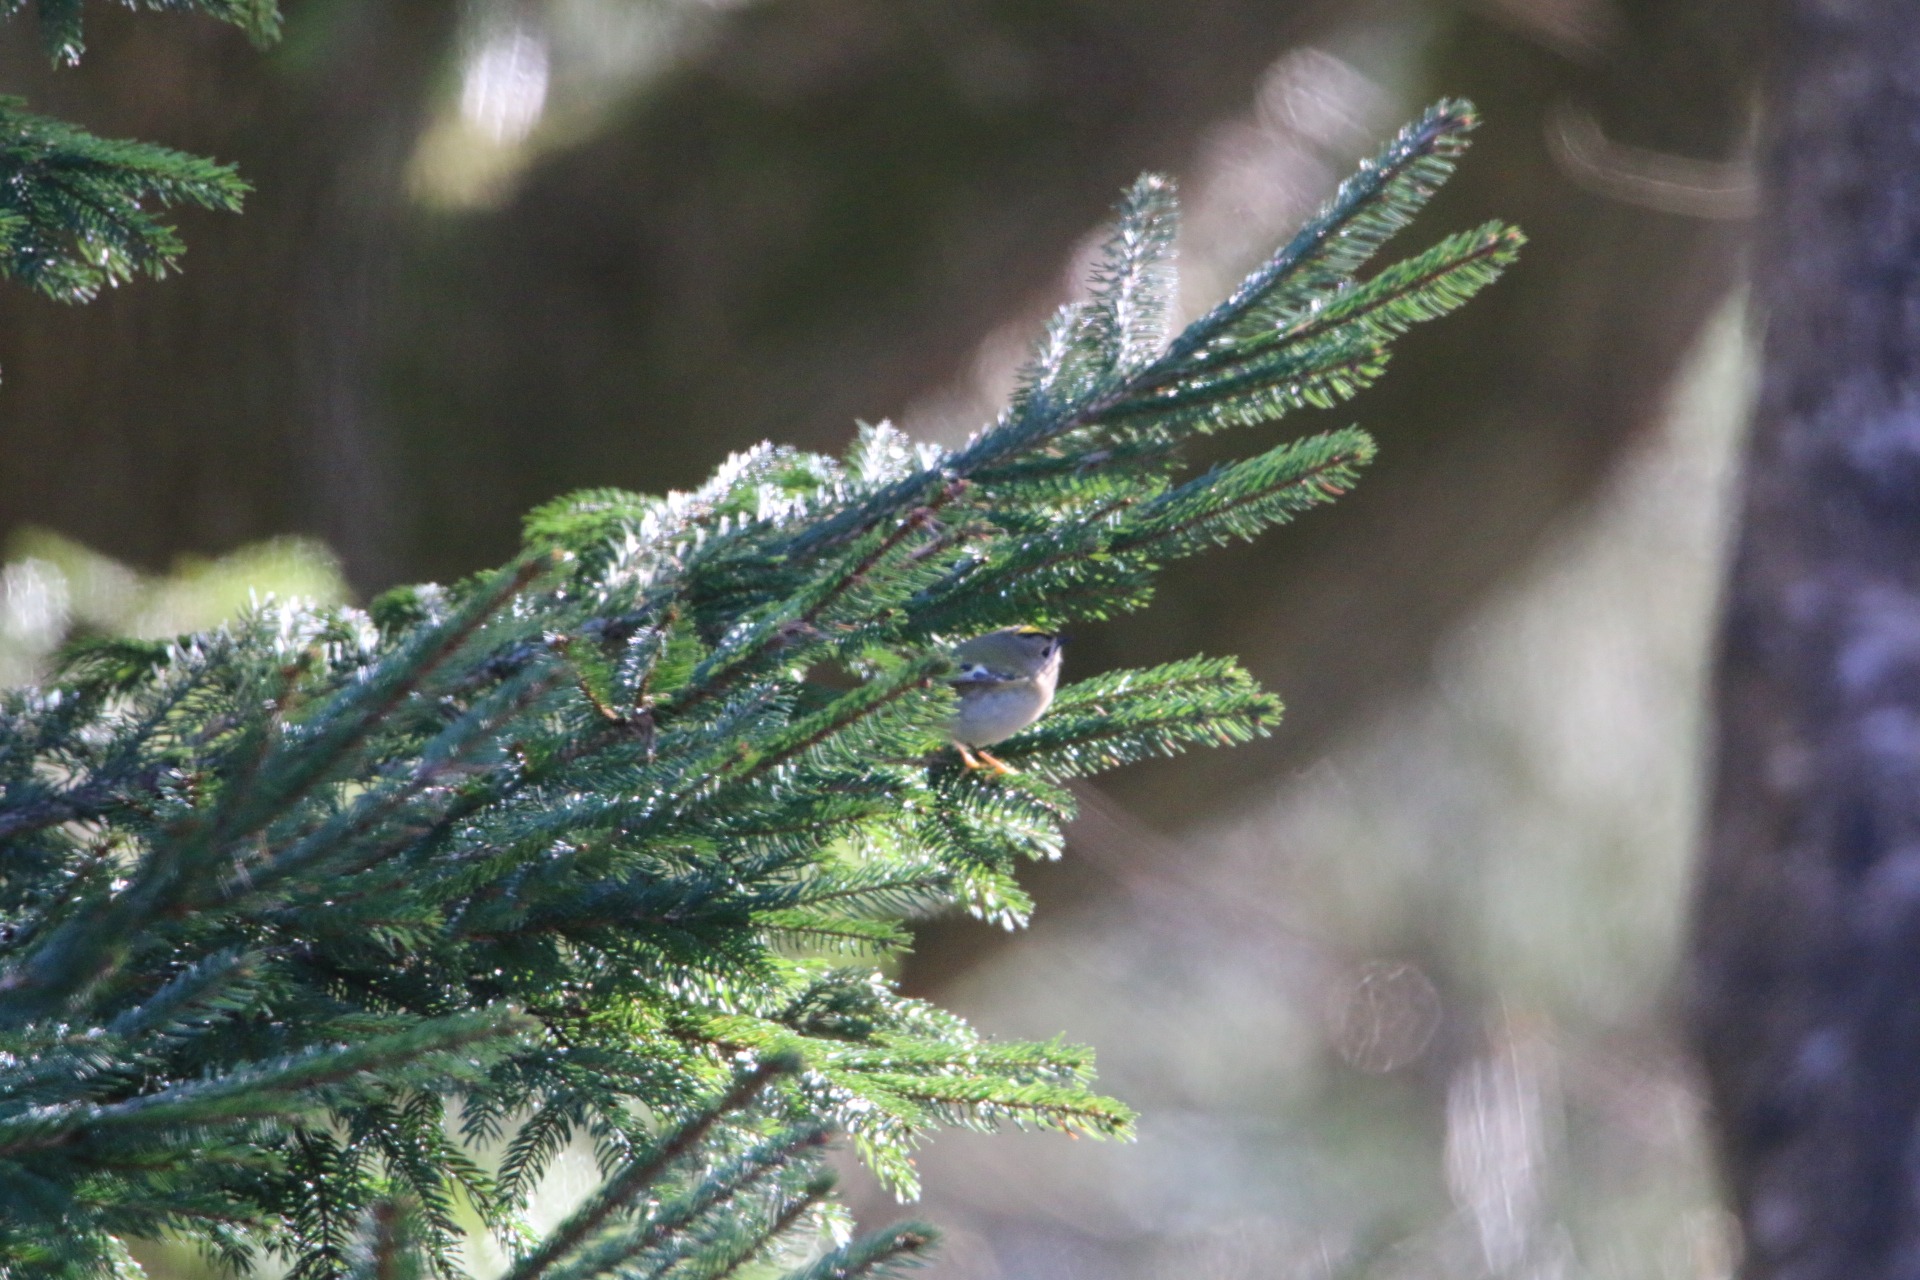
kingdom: Animalia
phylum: Chordata
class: Aves
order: Passeriformes
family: Regulidae
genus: Regulus
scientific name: Regulus regulus
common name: Fuglekonge
